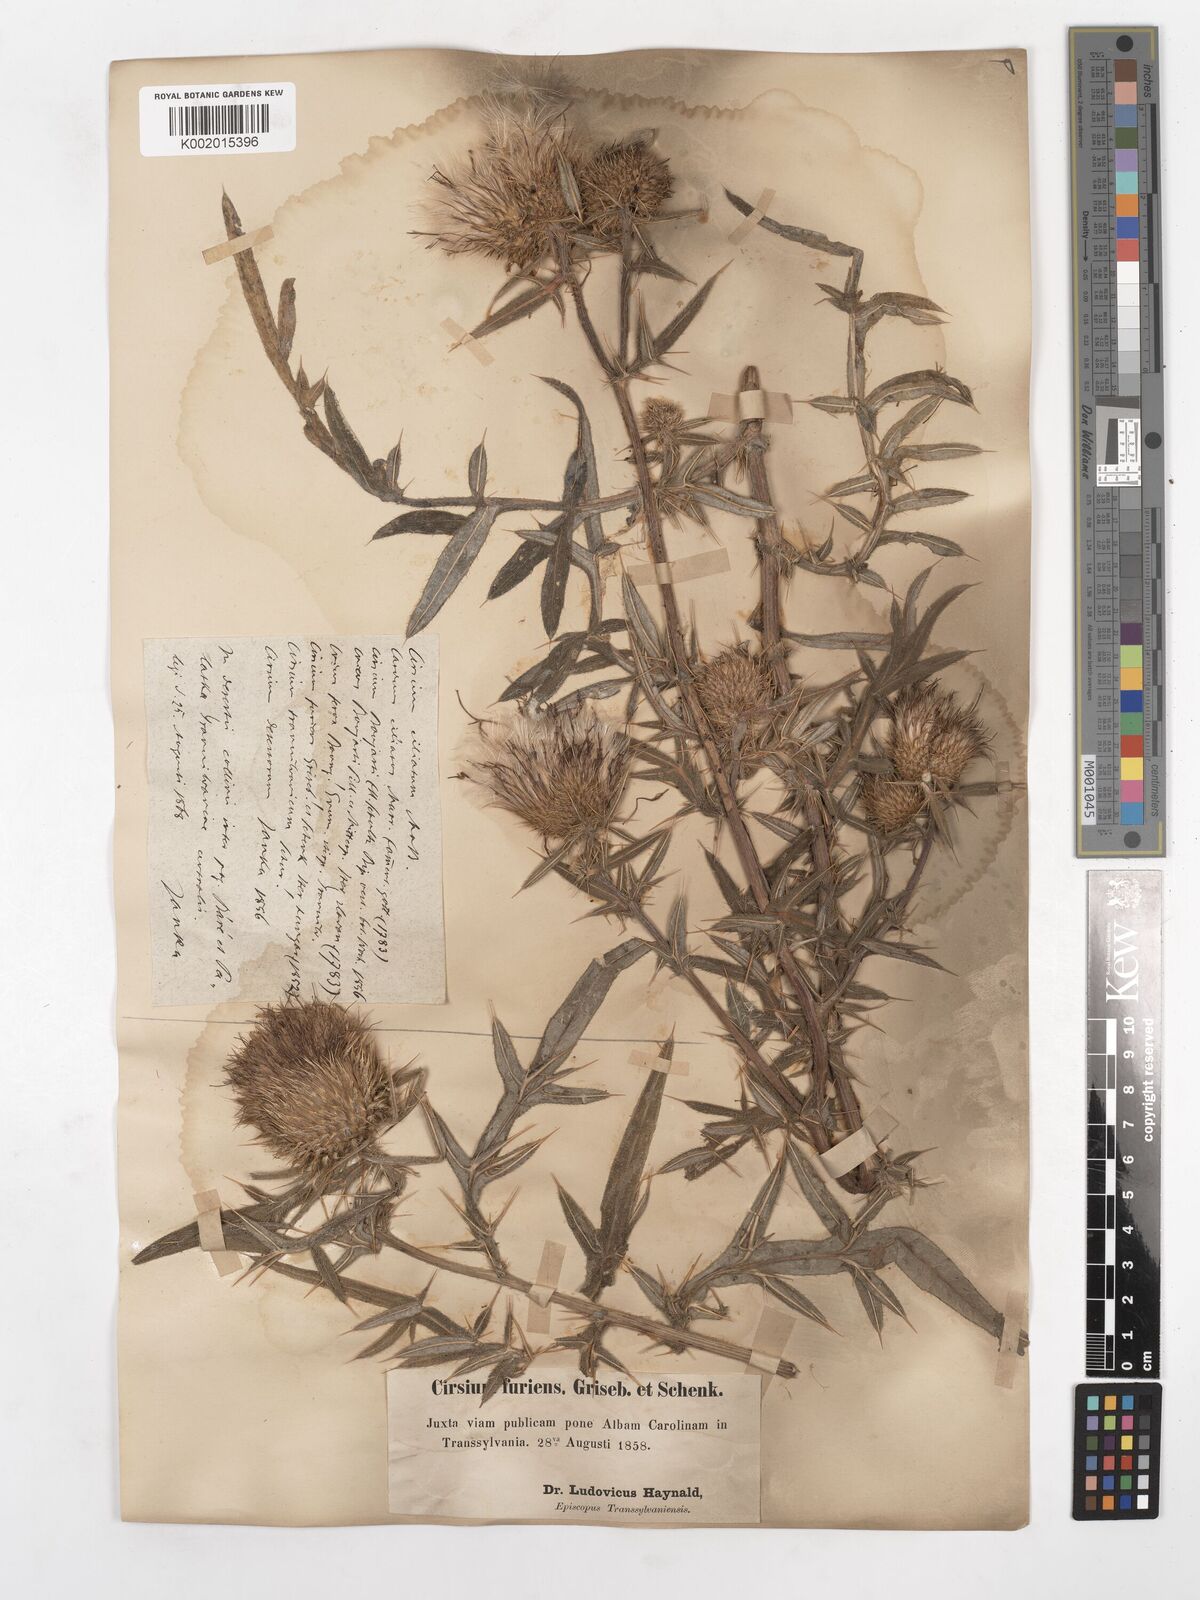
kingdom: Plantae
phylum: Tracheophyta
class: Magnoliopsida
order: Asterales
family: Asteraceae
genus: Lophiolepis
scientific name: Lophiolepis ciliata
